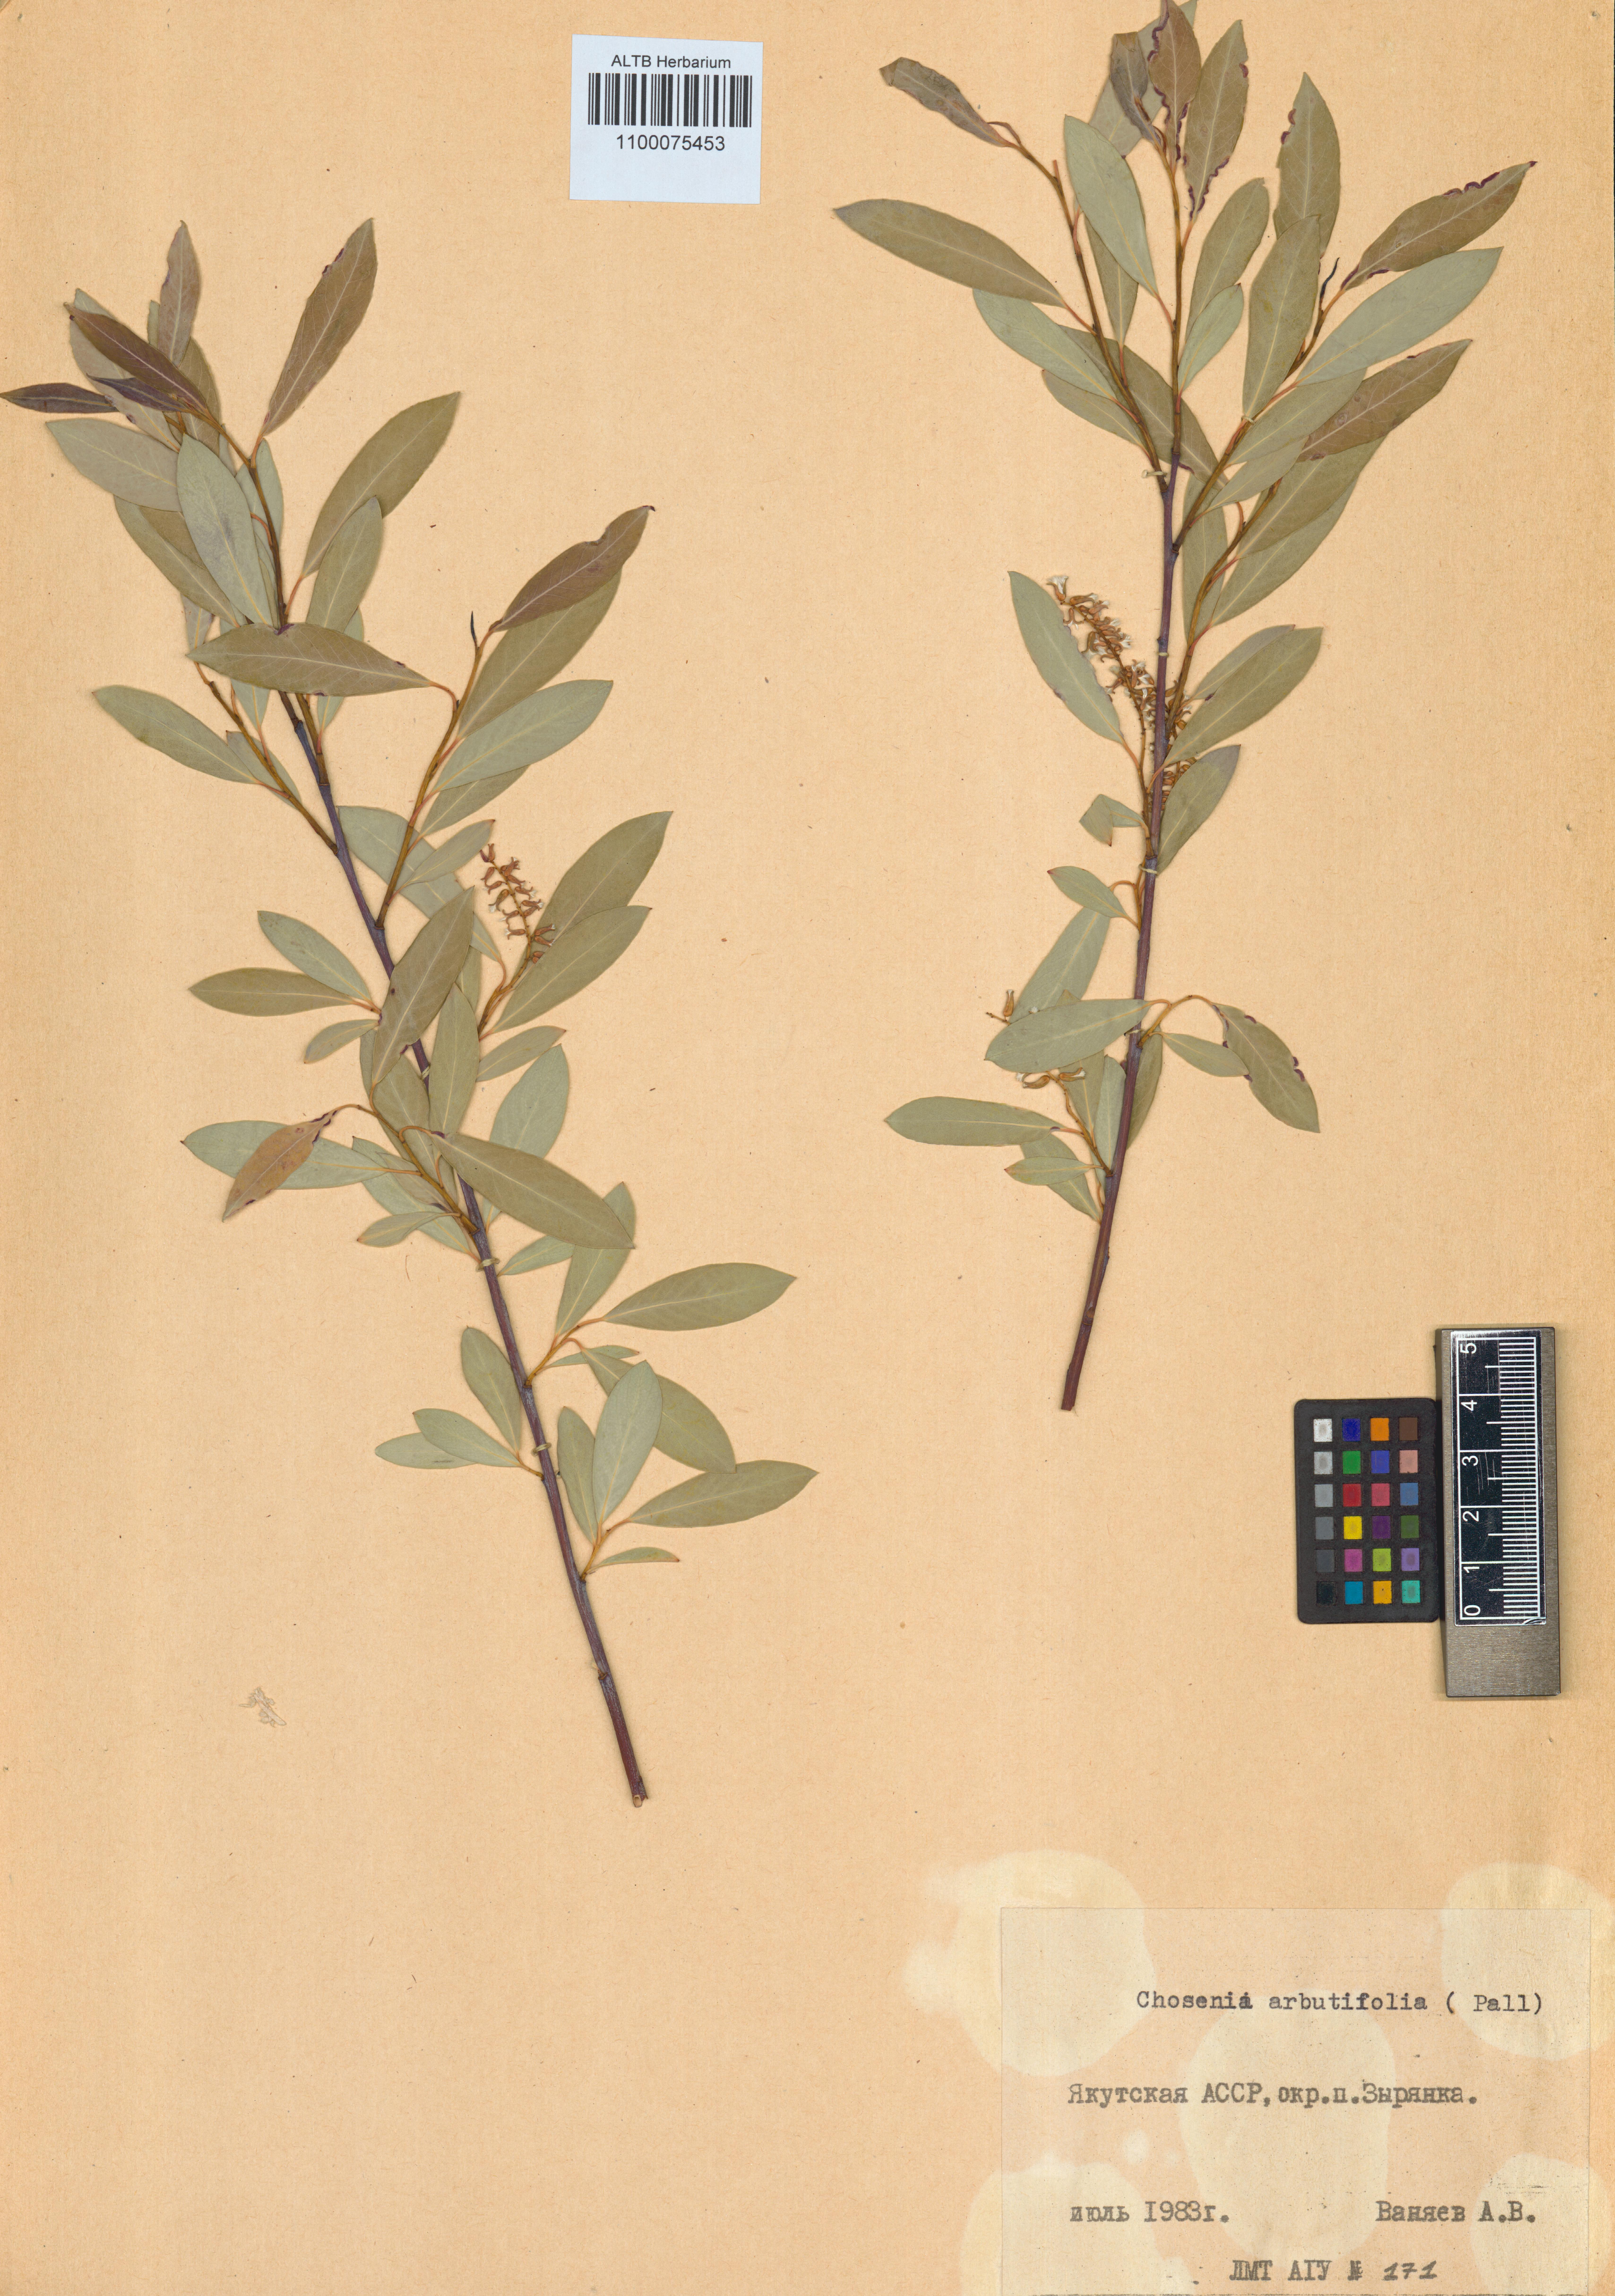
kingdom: Plantae
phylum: Tracheophyta
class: Magnoliopsida
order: Malpighiales
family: Salicaceae
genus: Chosenia
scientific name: Chosenia arbutifolia
